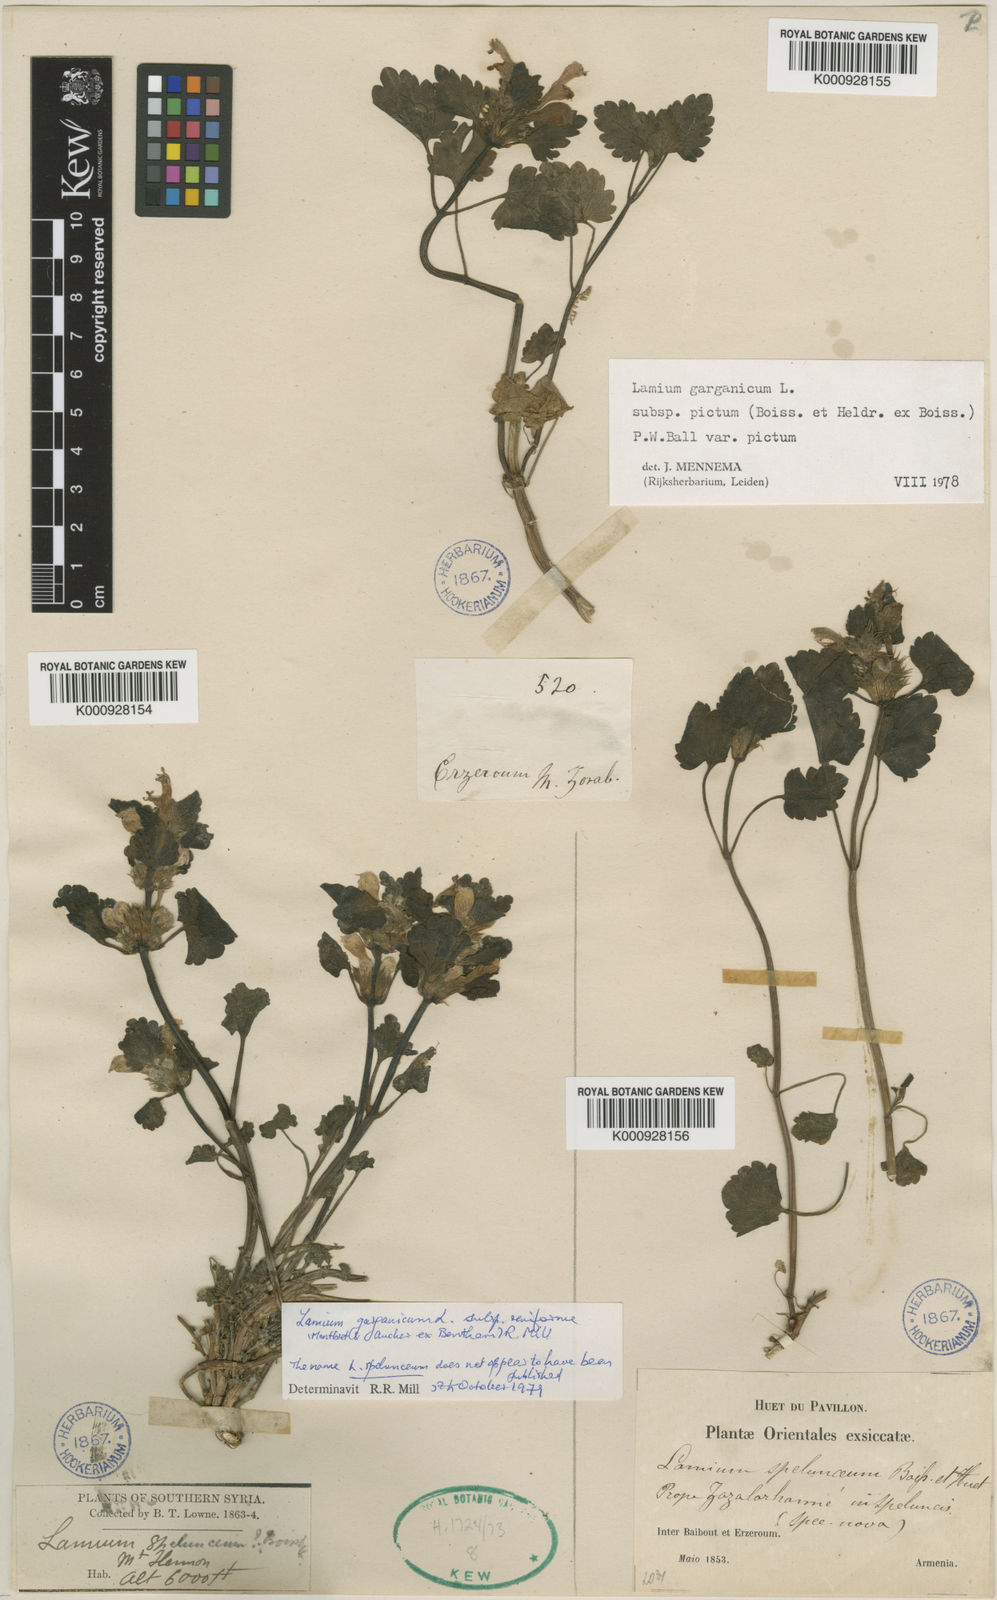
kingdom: Plantae
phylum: Tracheophyta
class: Magnoliopsida
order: Lamiales
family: Lamiaceae
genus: Lamium
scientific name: Lamium garganicum
